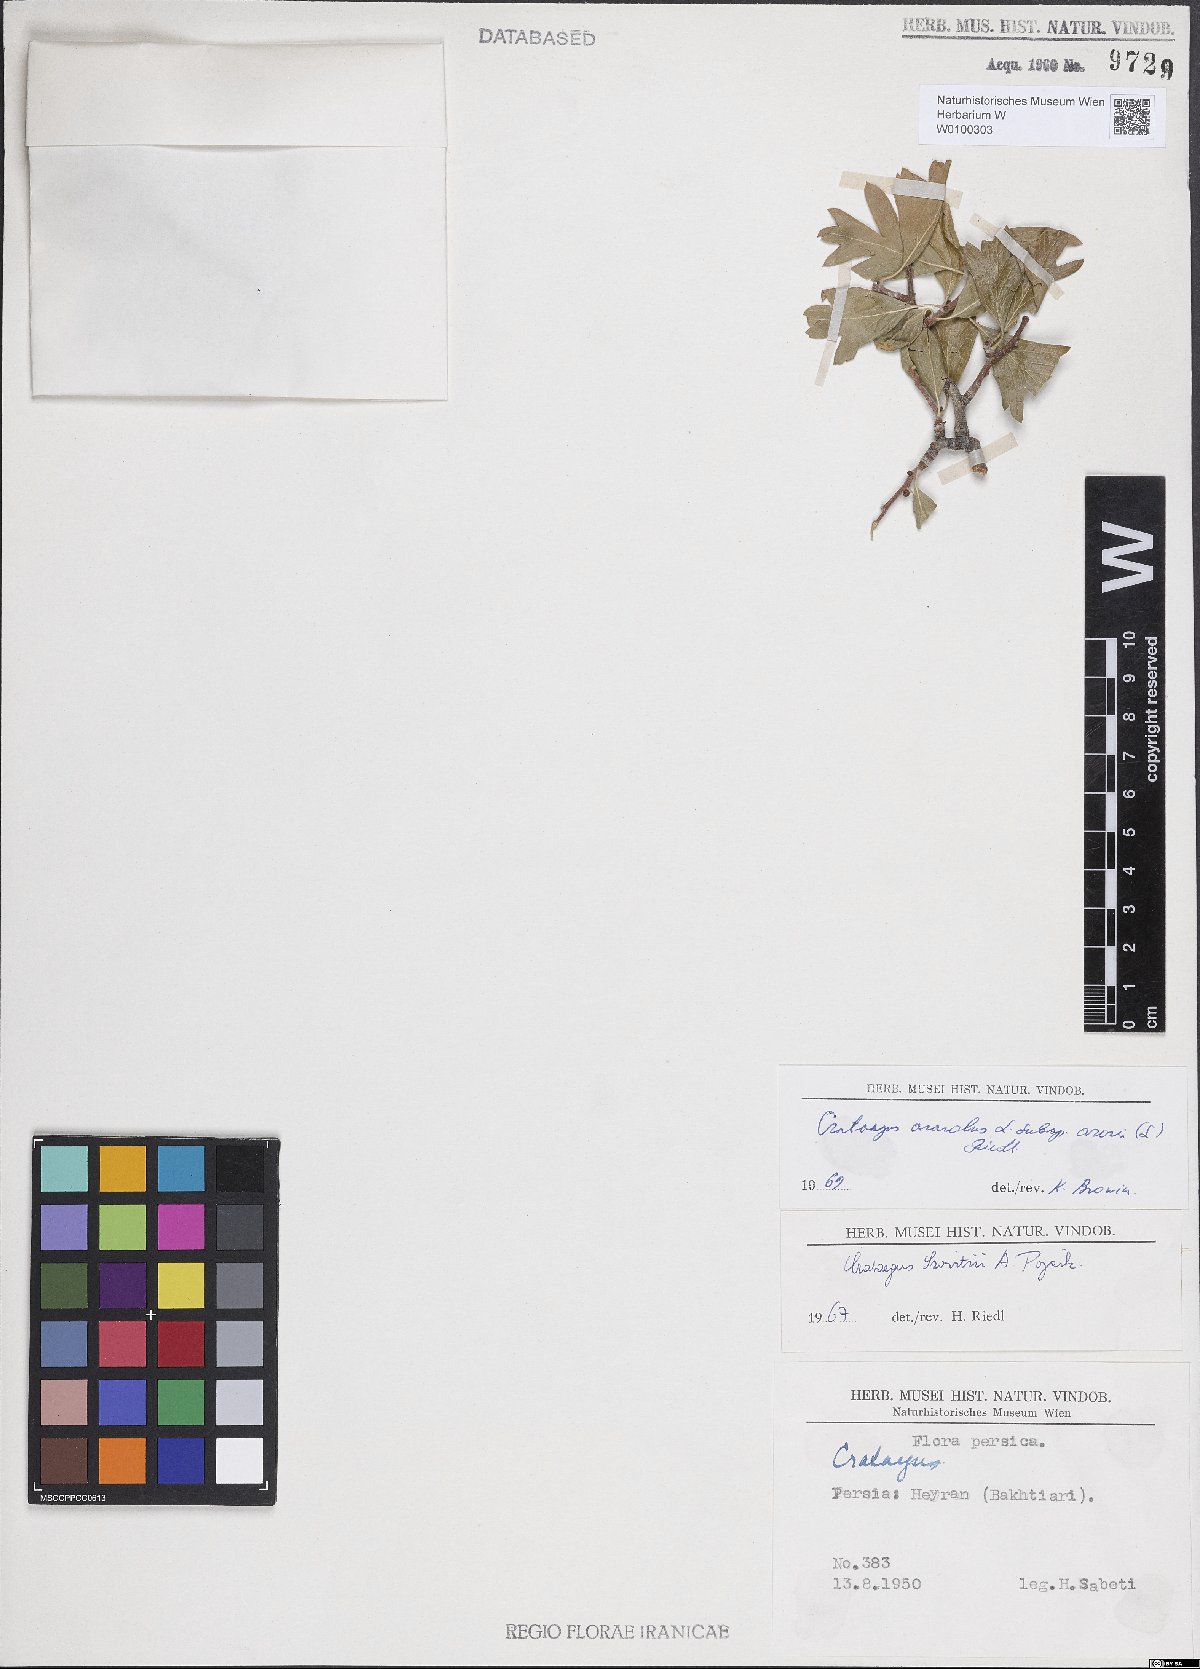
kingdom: Plantae
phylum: Tracheophyta
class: Magnoliopsida
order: Rosales
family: Rosaceae
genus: Crataegus
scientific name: Crataegus azarolus
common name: Azarole
